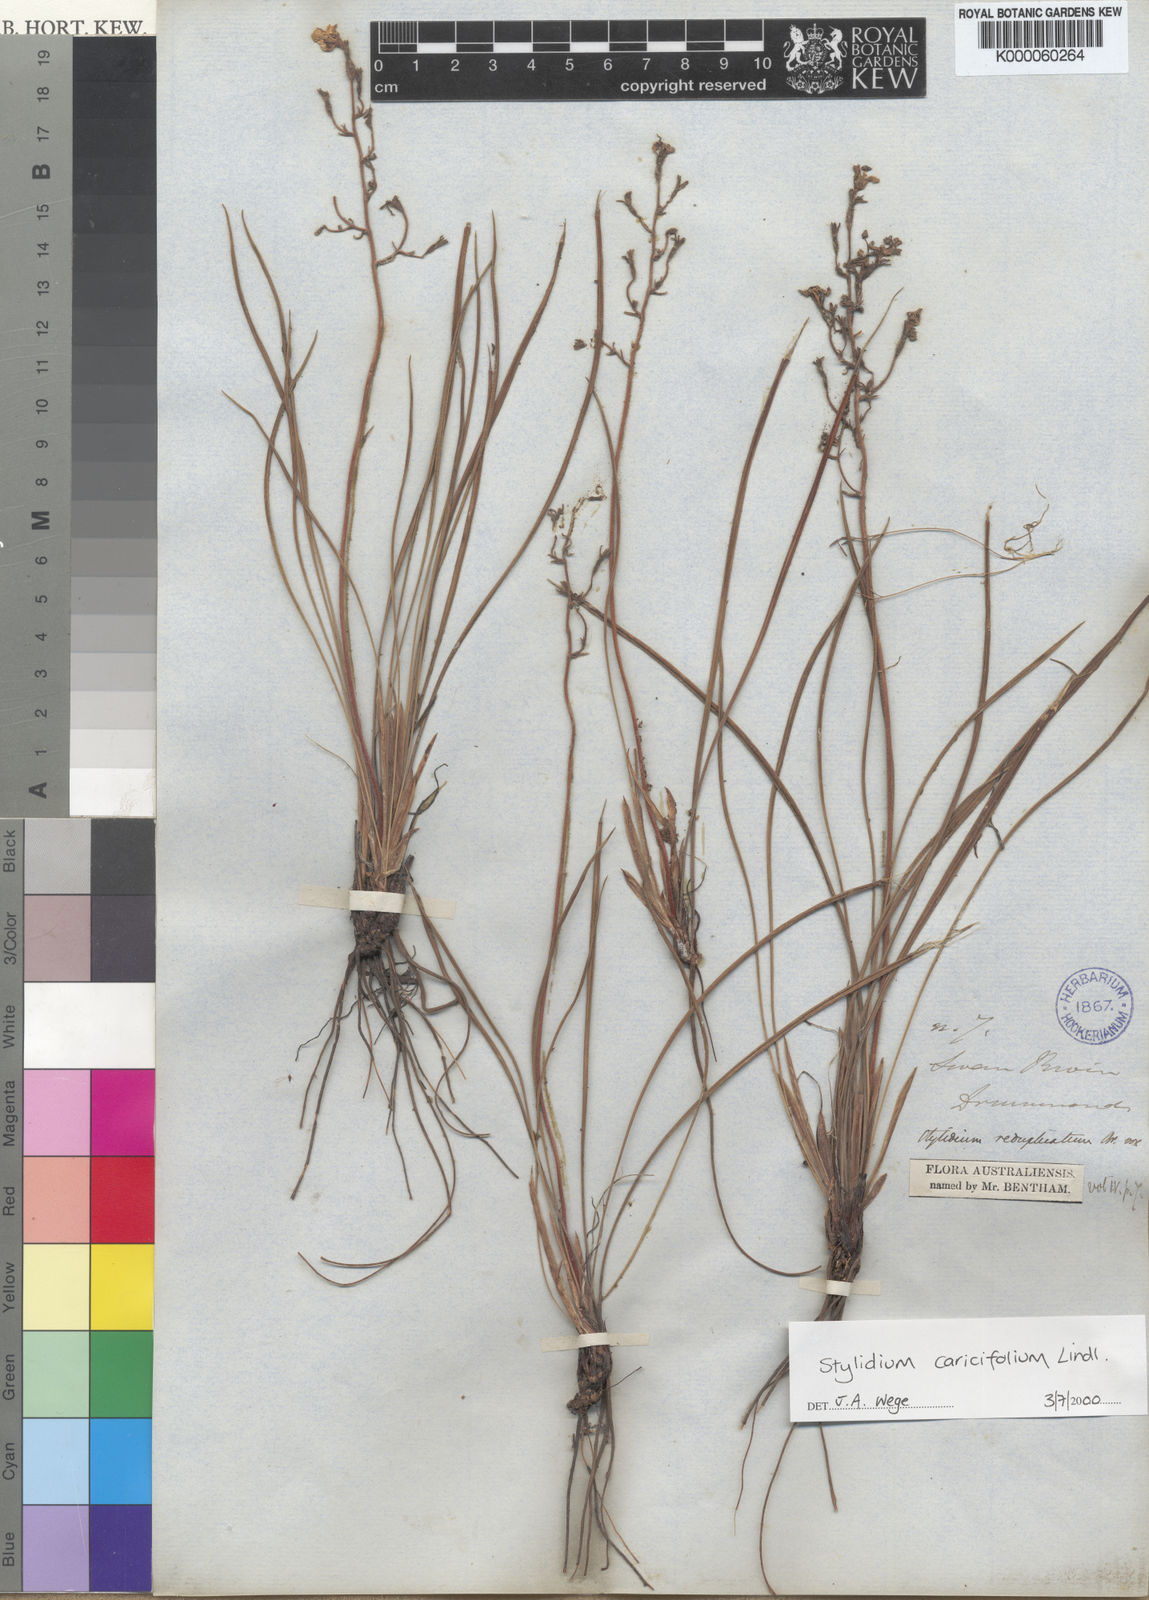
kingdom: Plantae
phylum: Tracheophyta
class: Magnoliopsida
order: Asterales
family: Stylidiaceae
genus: Stylidium
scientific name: Stylidium caricifolium
